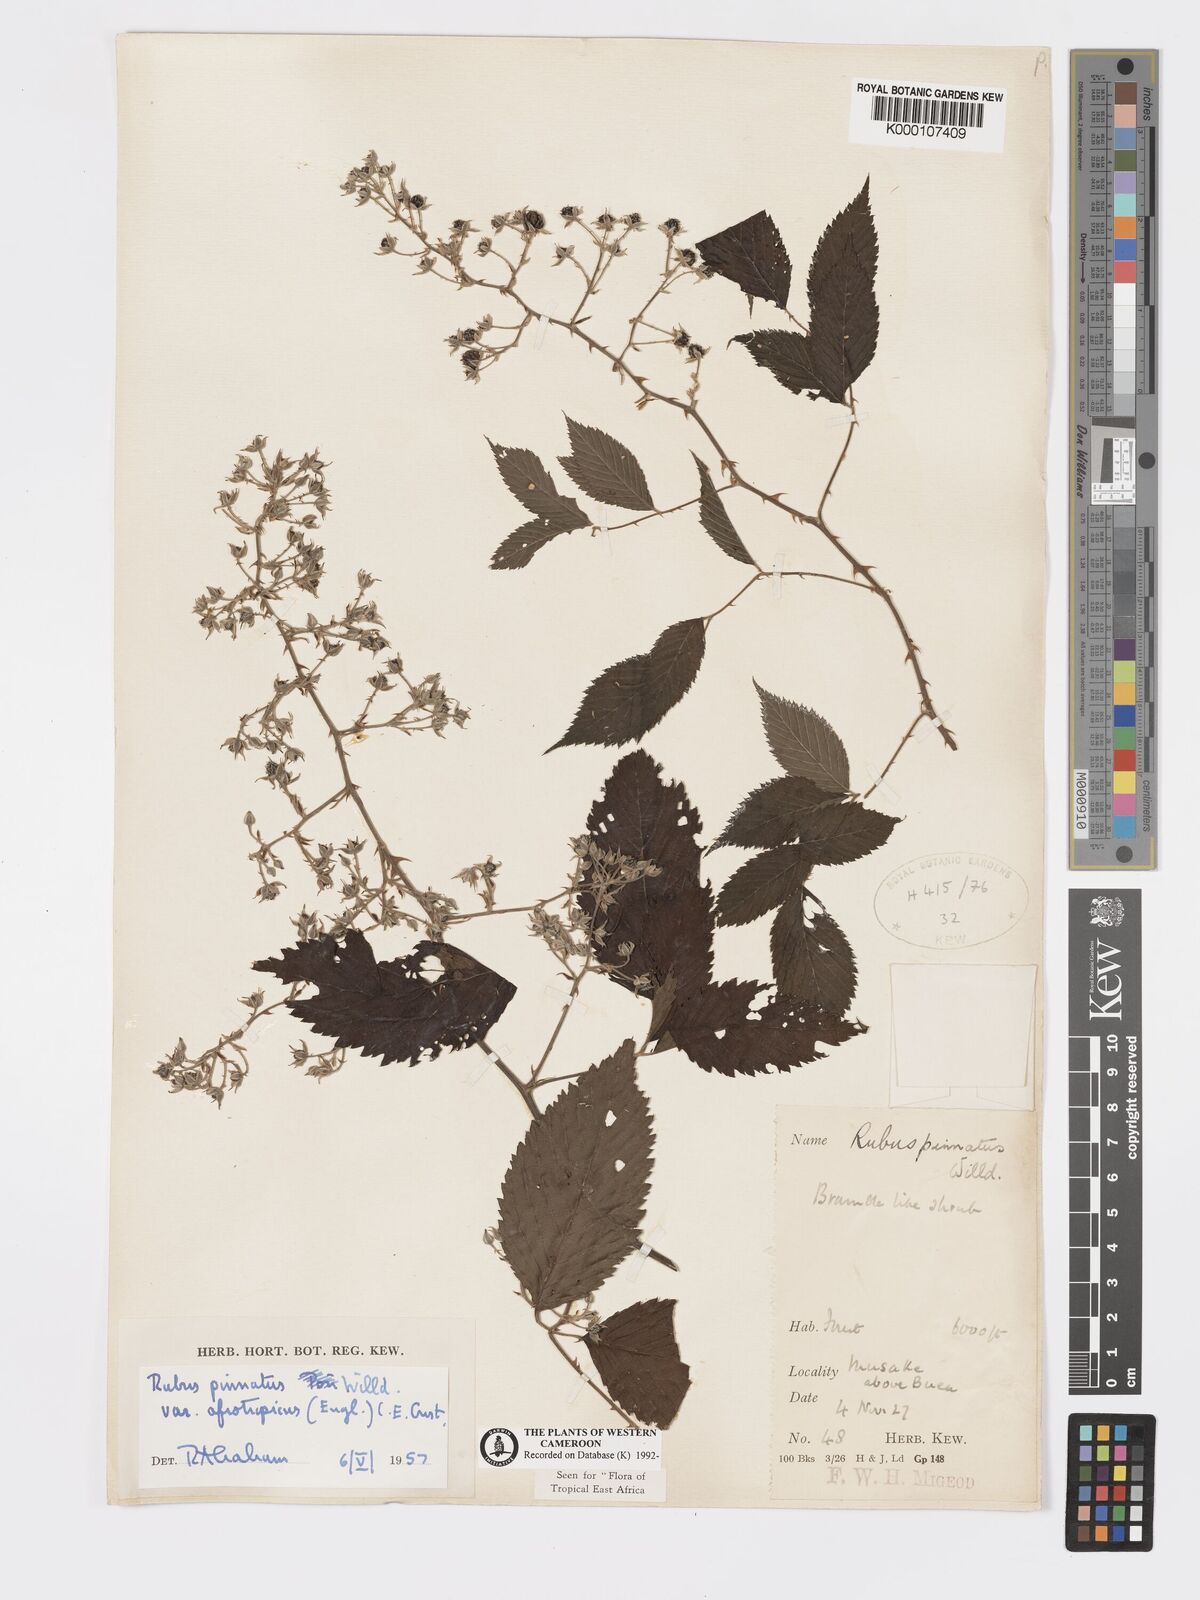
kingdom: Plantae
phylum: Tracheophyta
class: Magnoliopsida
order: Rosales
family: Rosaceae
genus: Rubus
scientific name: Rubus pinnatus
